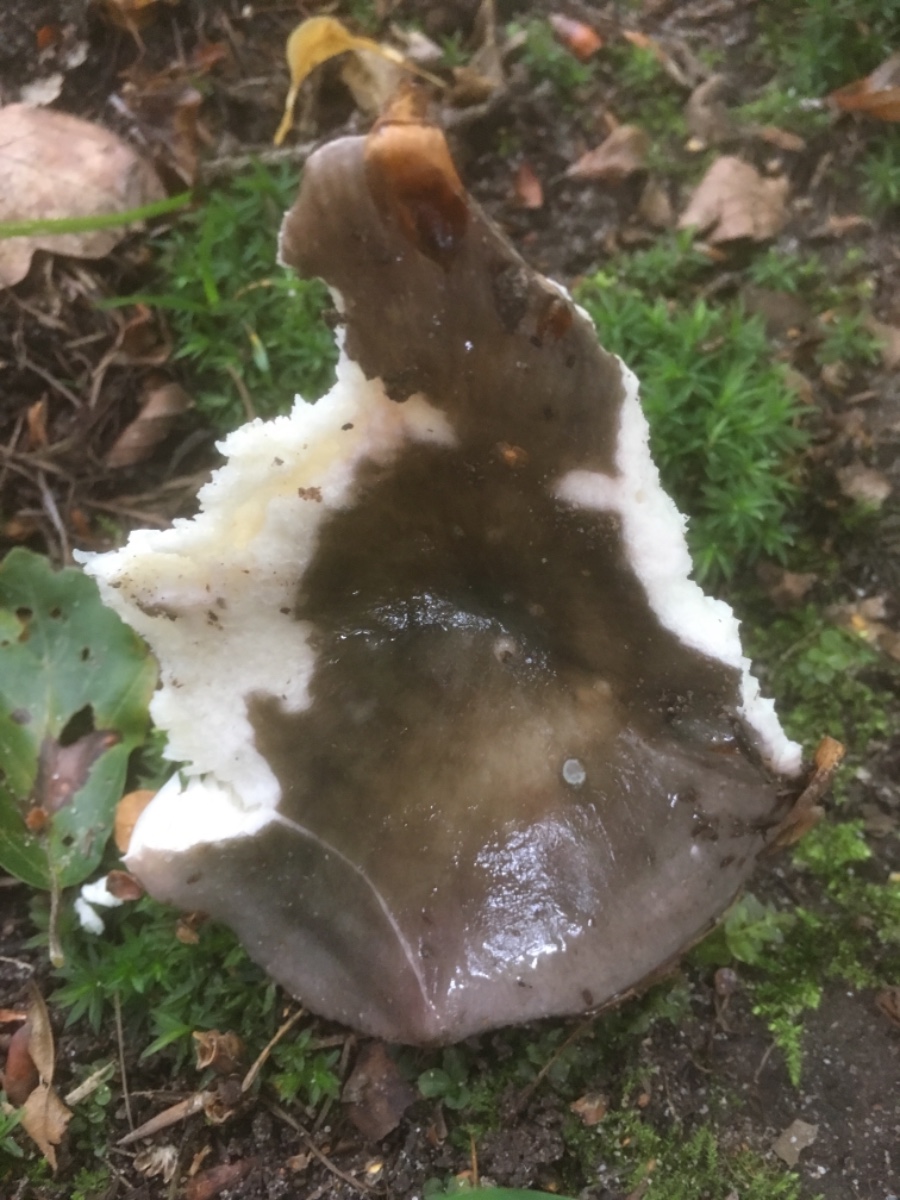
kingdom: Fungi
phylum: Basidiomycota
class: Agaricomycetes
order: Russulales
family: Russulaceae
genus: Russula
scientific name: Russula cyanoxantha
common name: broget skørhat
